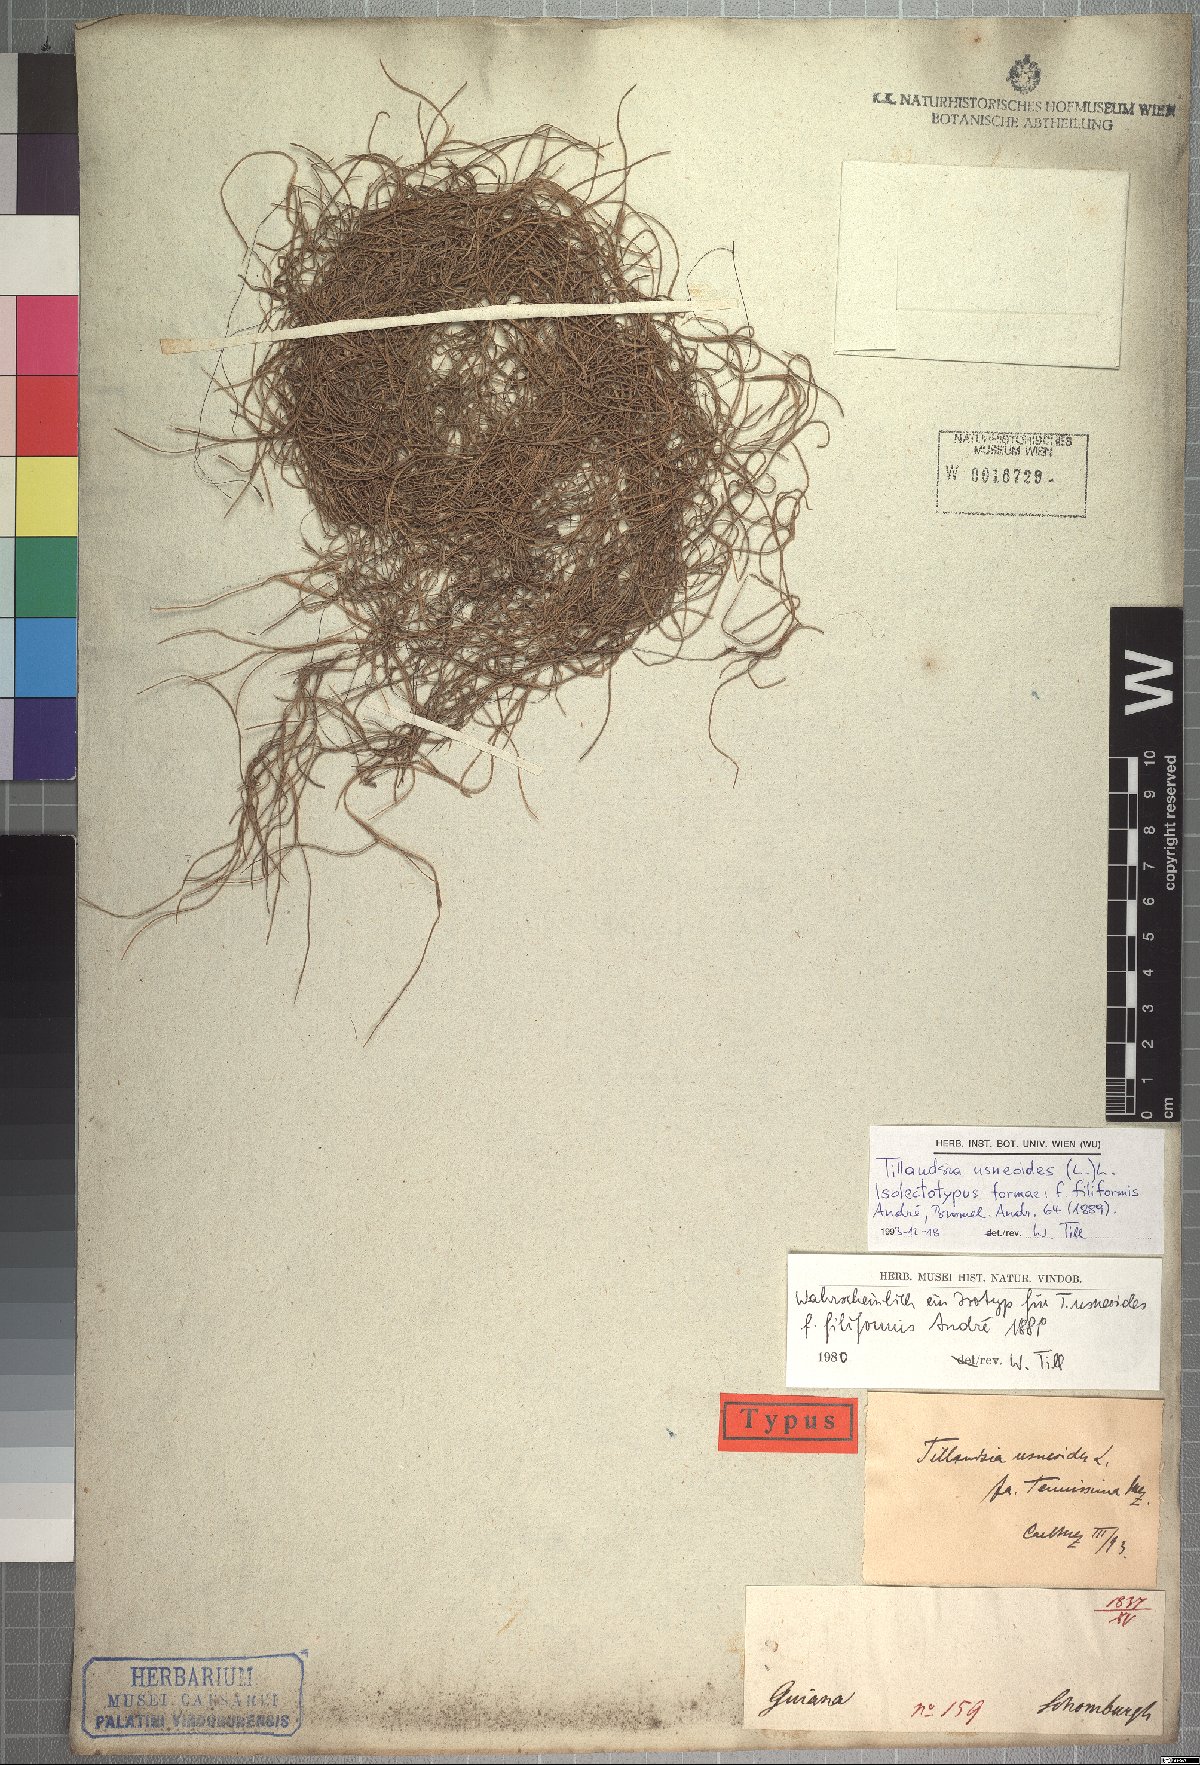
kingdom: Plantae
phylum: Tracheophyta
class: Liliopsida
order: Poales
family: Bromeliaceae
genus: Tillandsia
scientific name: Tillandsia usneoides
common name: Spanish moss
